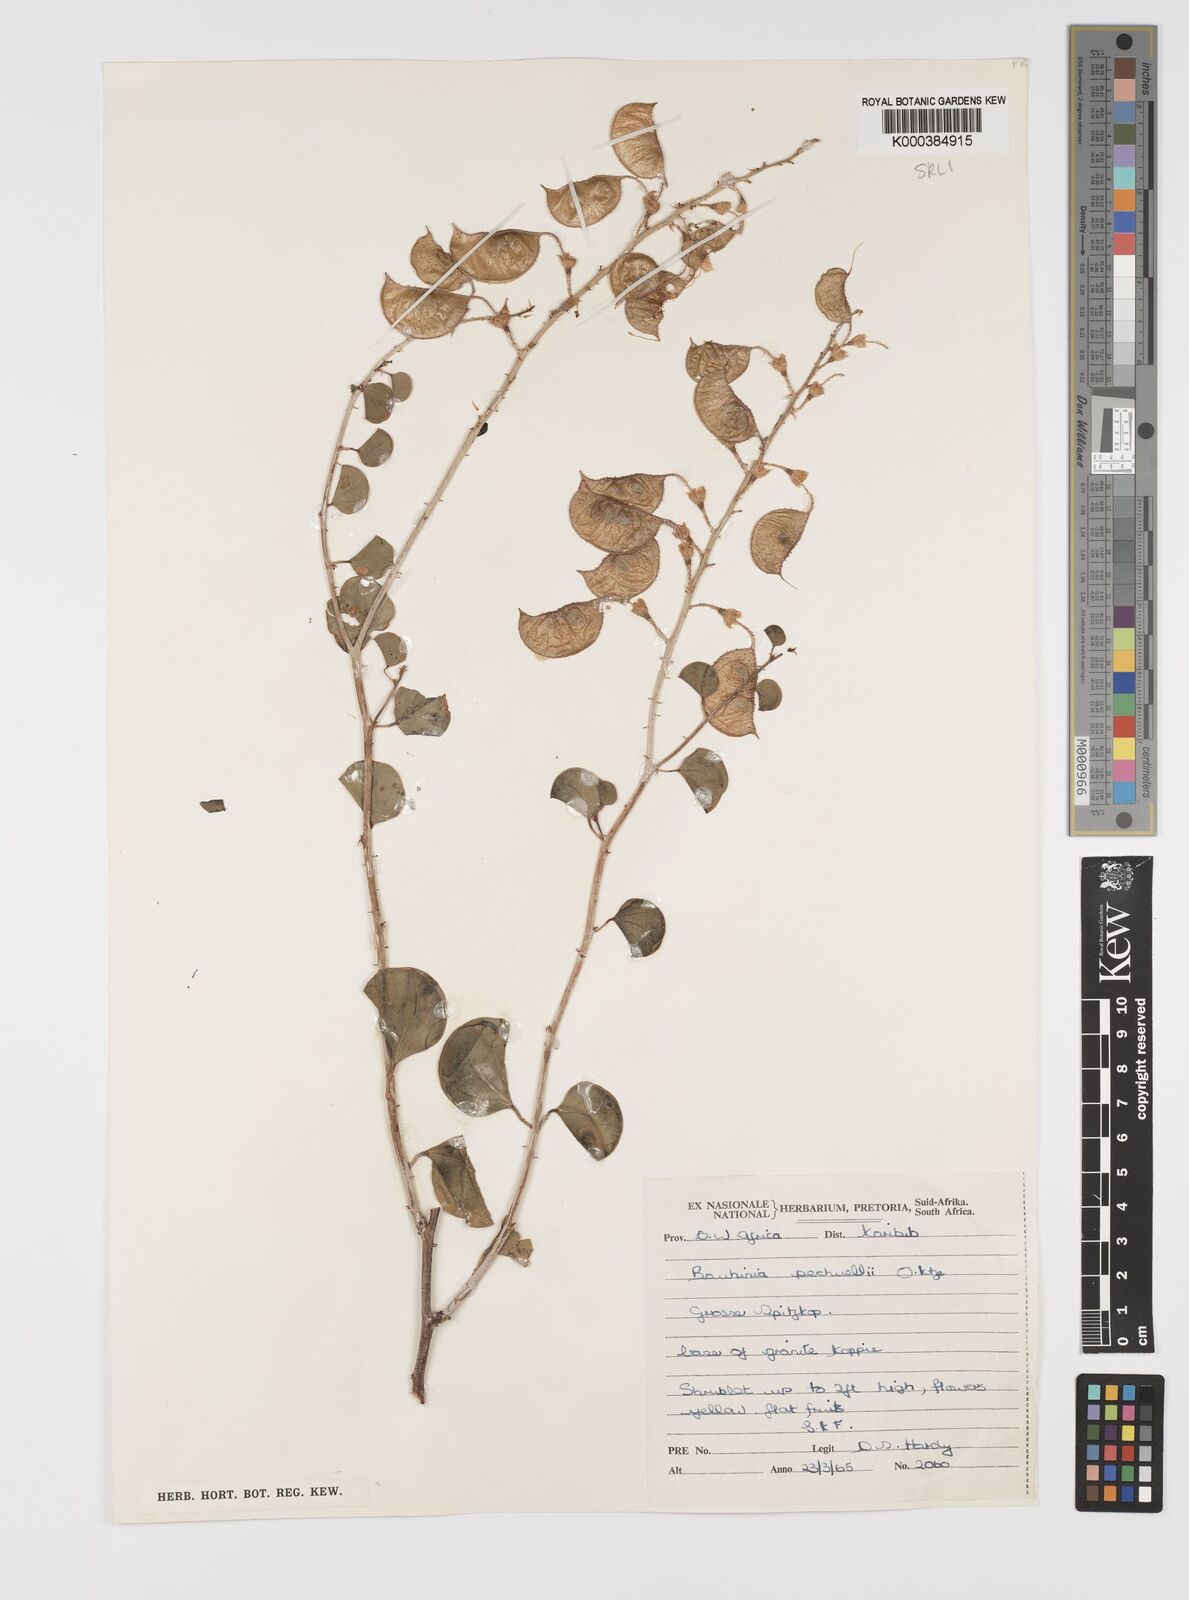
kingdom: Plantae
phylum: Tracheophyta
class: Magnoliopsida
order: Fabales
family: Fabaceae
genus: Bauhinia
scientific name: Bauhinia
